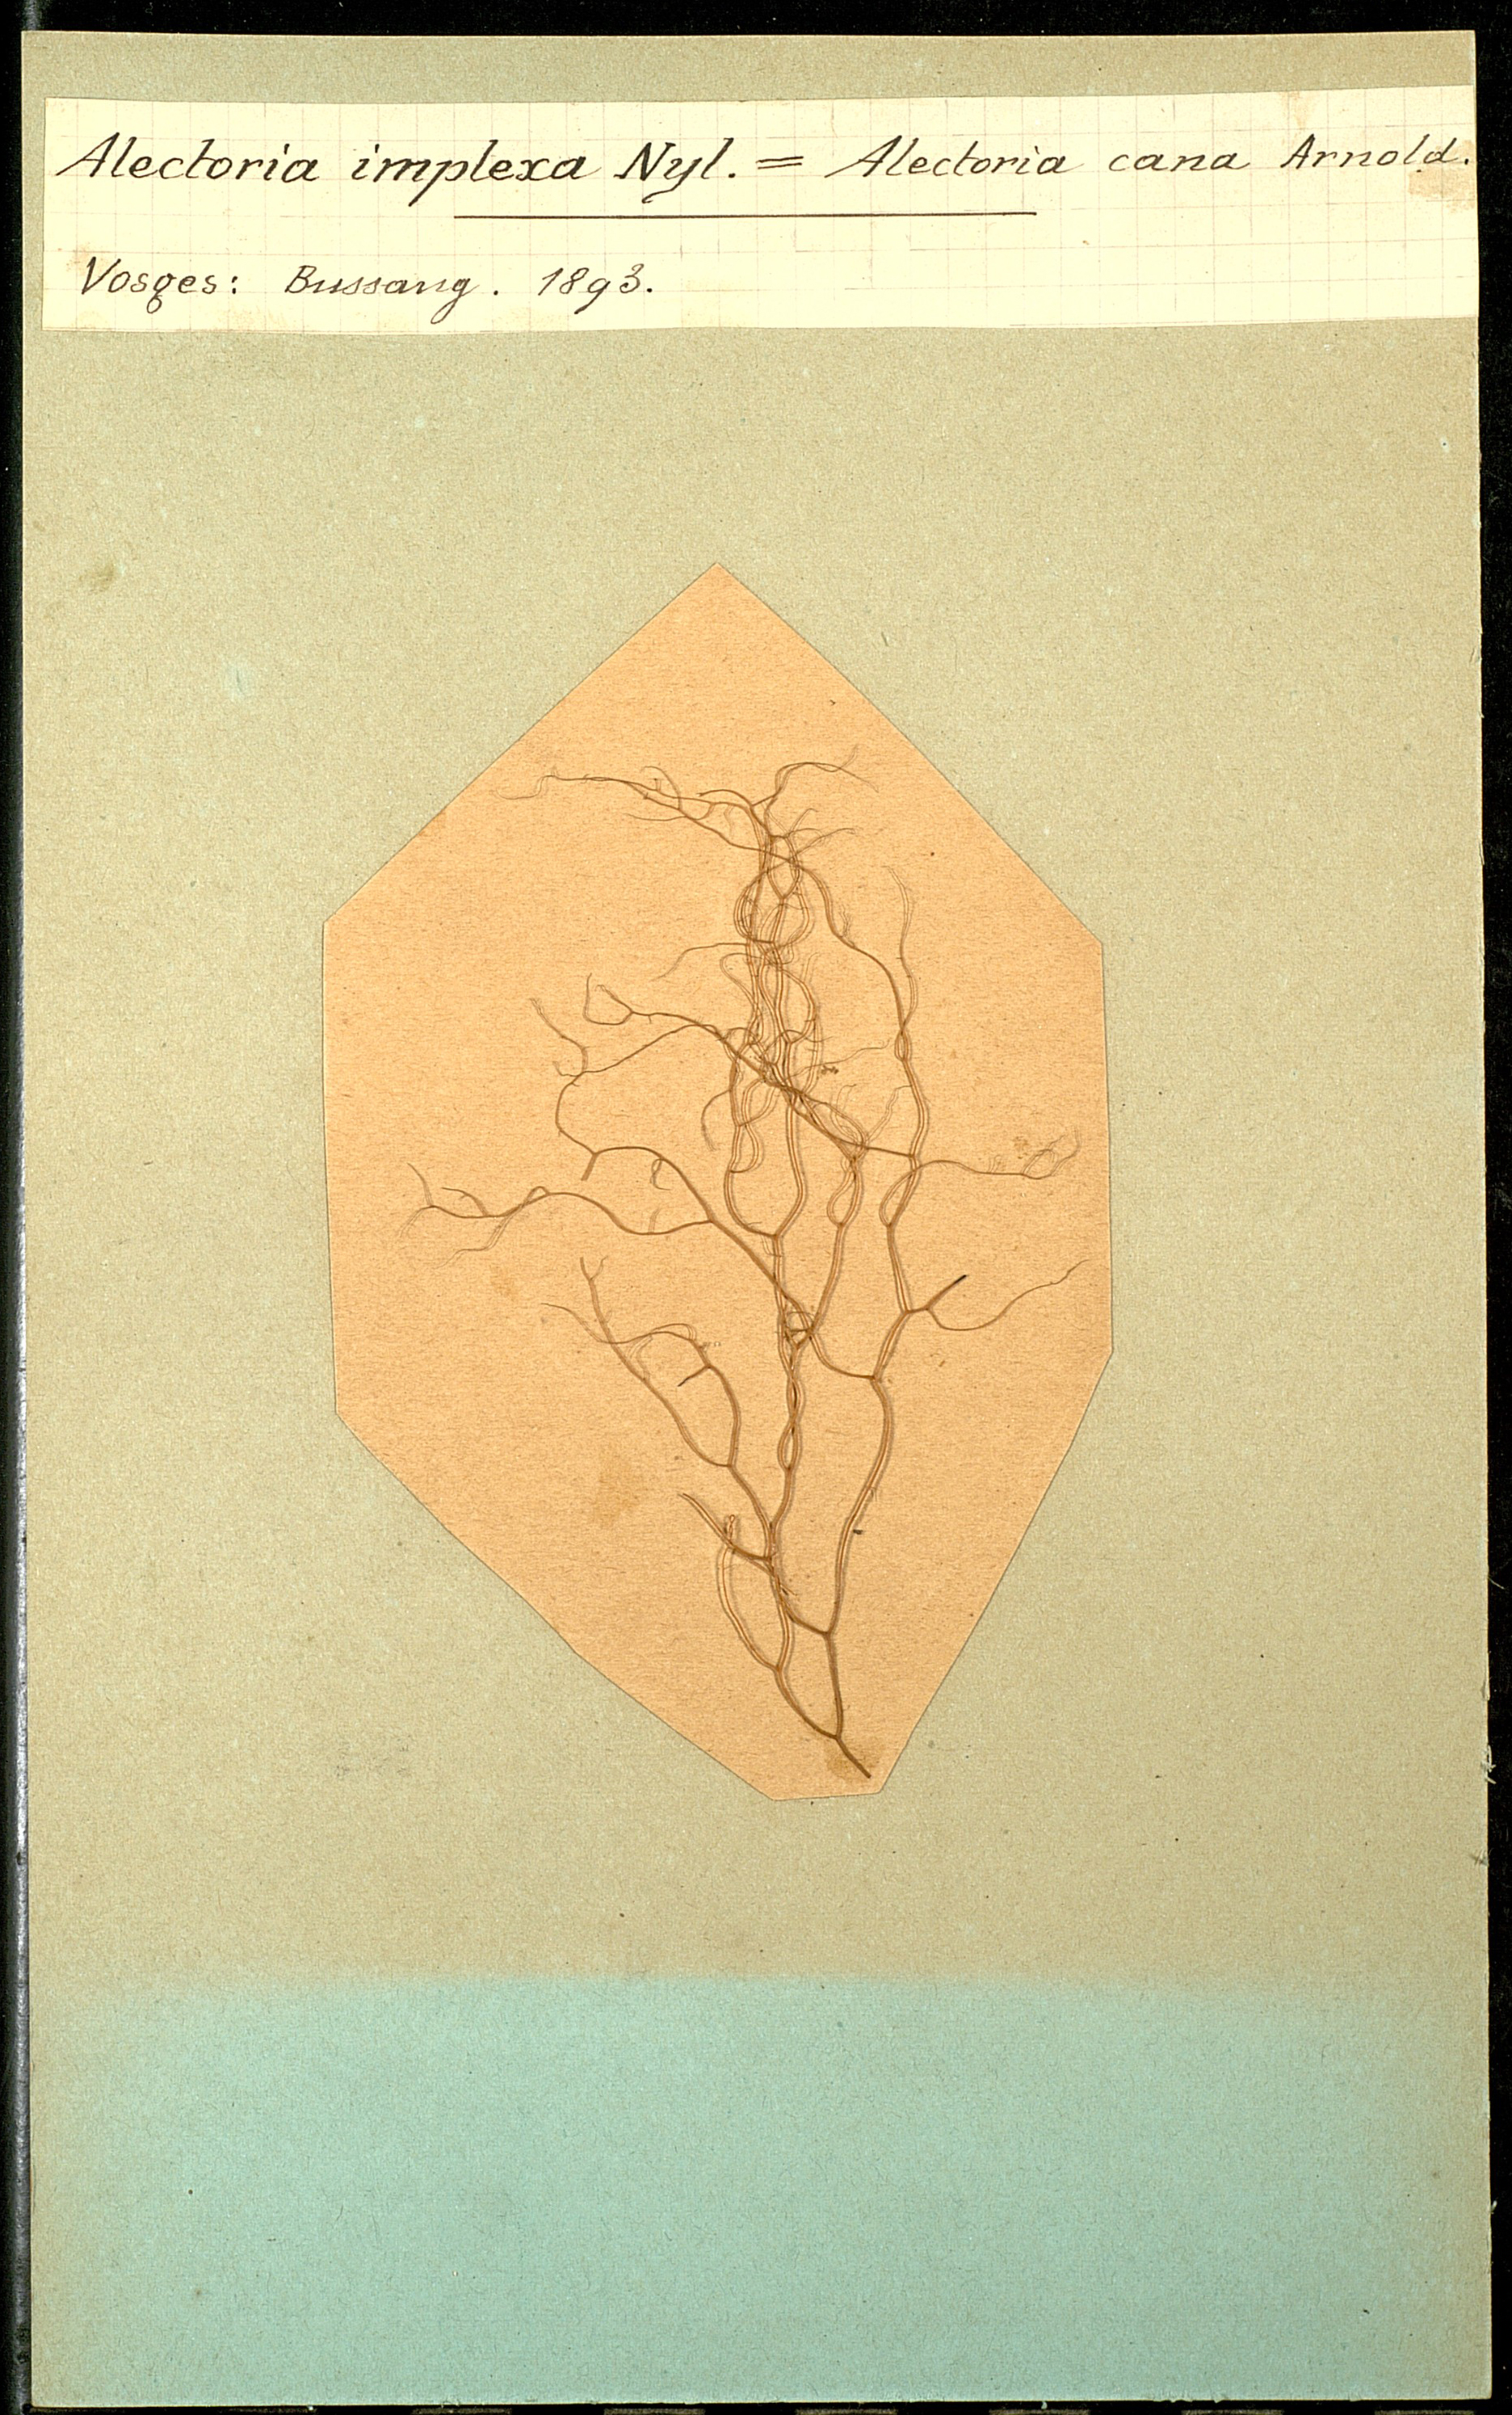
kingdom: Fungi
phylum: Ascomycota
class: Lecanoromycetes
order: Lecanorales
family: Parmeliaceae
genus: Bryoria
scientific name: Bryoria capillaris
